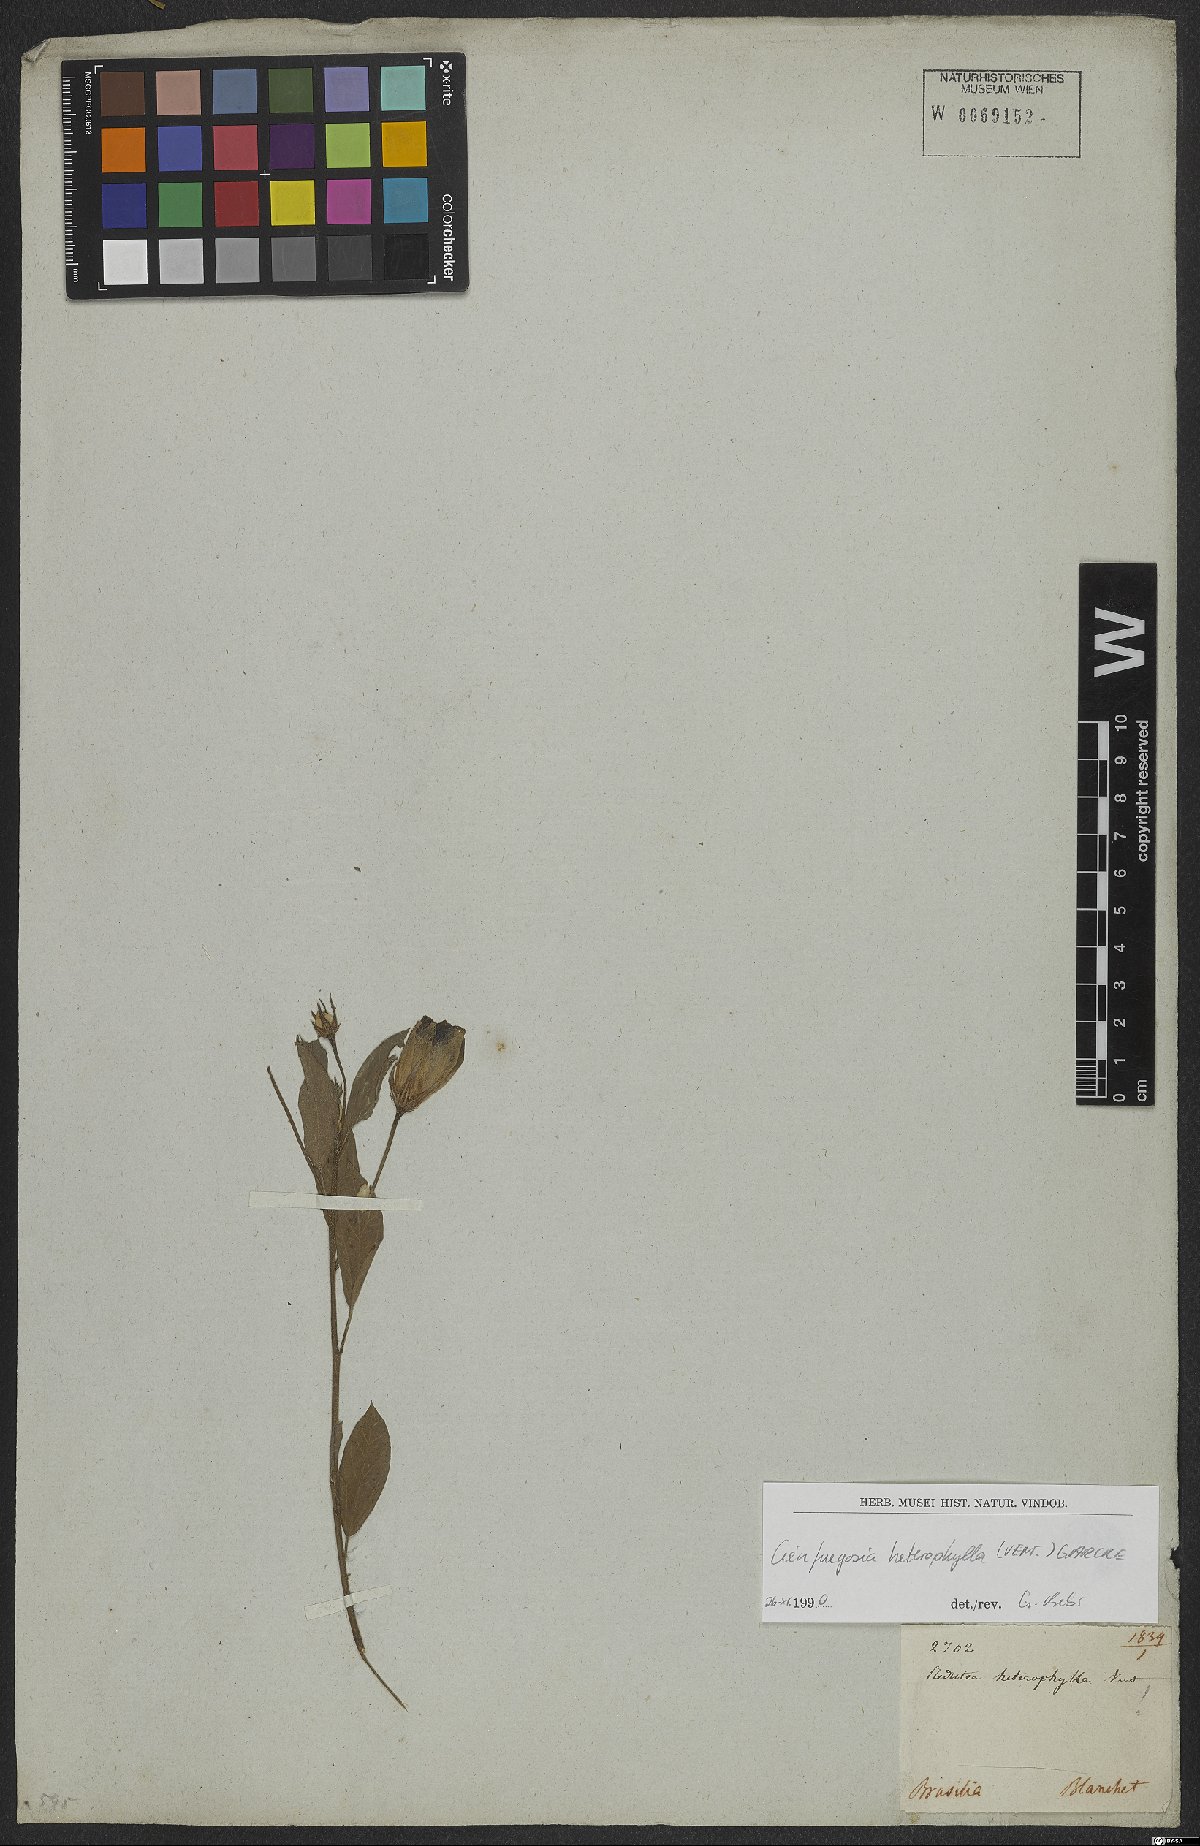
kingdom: Plantae
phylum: Tracheophyta
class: Magnoliopsida
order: Malvales
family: Malvaceae
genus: Cienfuegosia
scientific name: Cienfuegosia heterophylla
